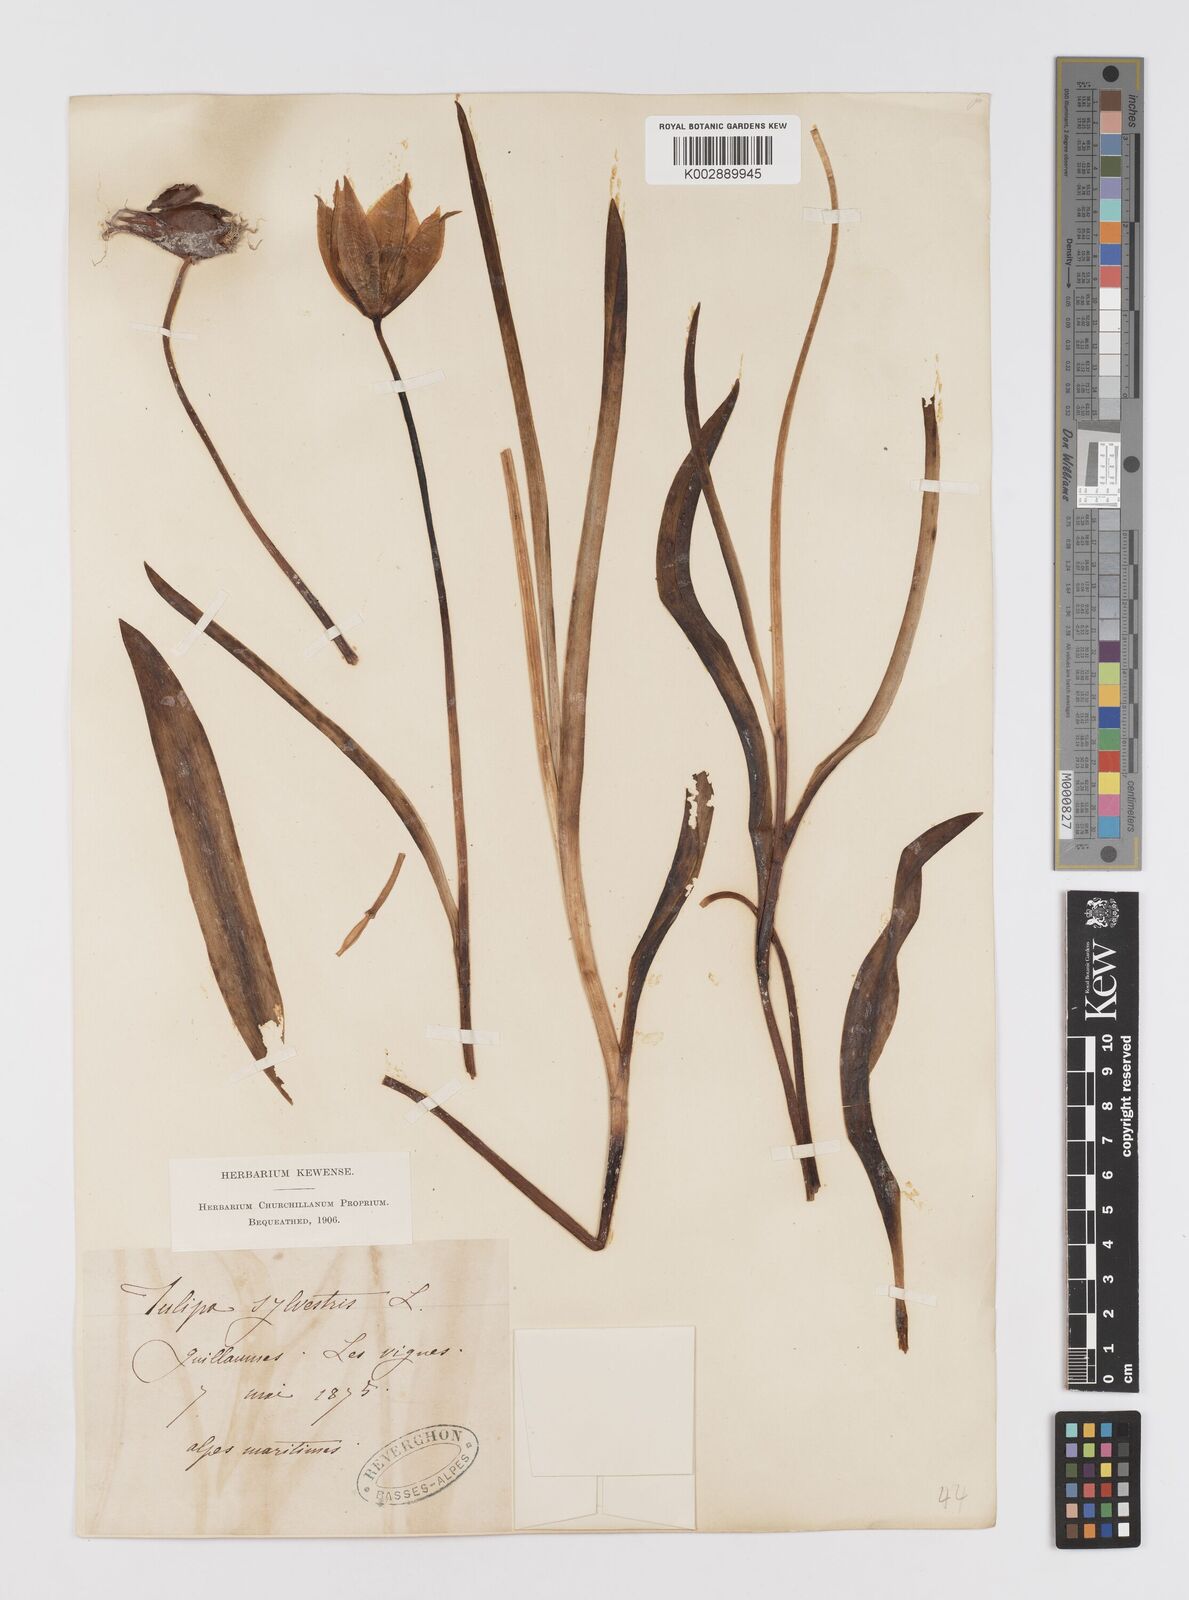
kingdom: Plantae
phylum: Tracheophyta
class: Liliopsida
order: Liliales
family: Liliaceae
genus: Tulipa
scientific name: Tulipa sylvestris
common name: Wild tulip
